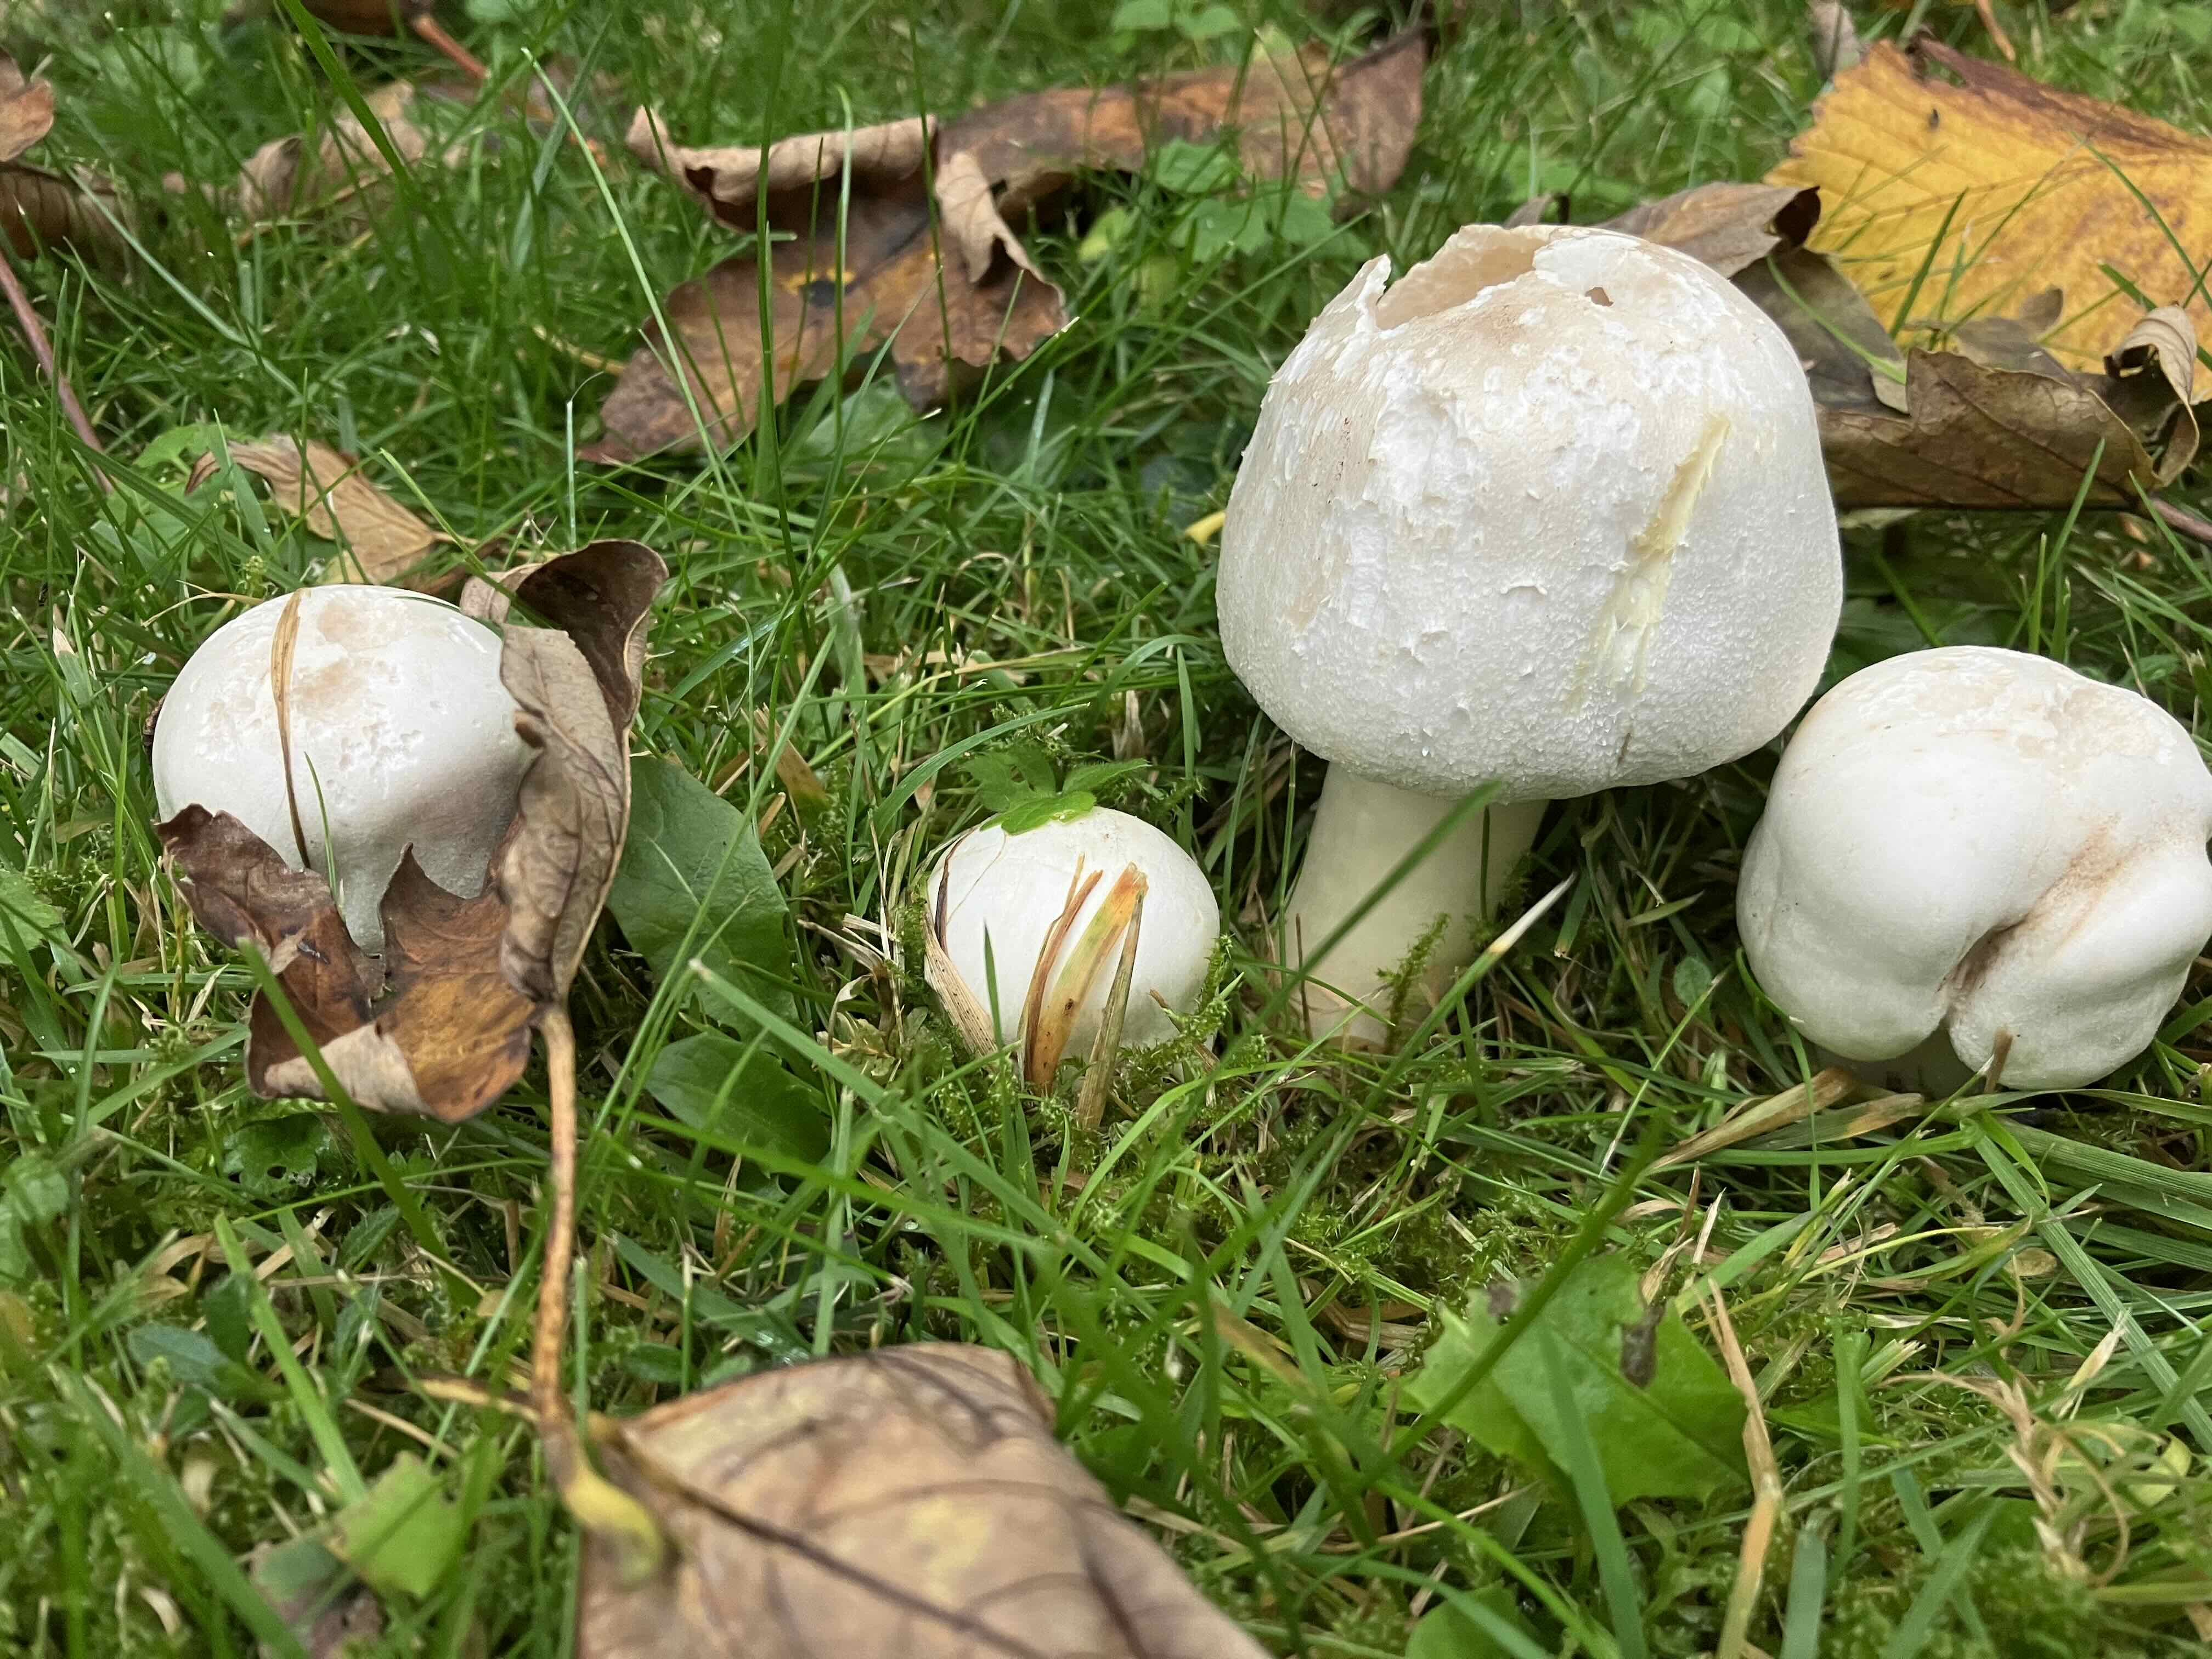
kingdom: Fungi
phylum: Basidiomycota
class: Agaricomycetes
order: Agaricales
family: Agaricaceae
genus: Agaricus
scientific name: Agaricus xanthodermus
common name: karbol-champignon
